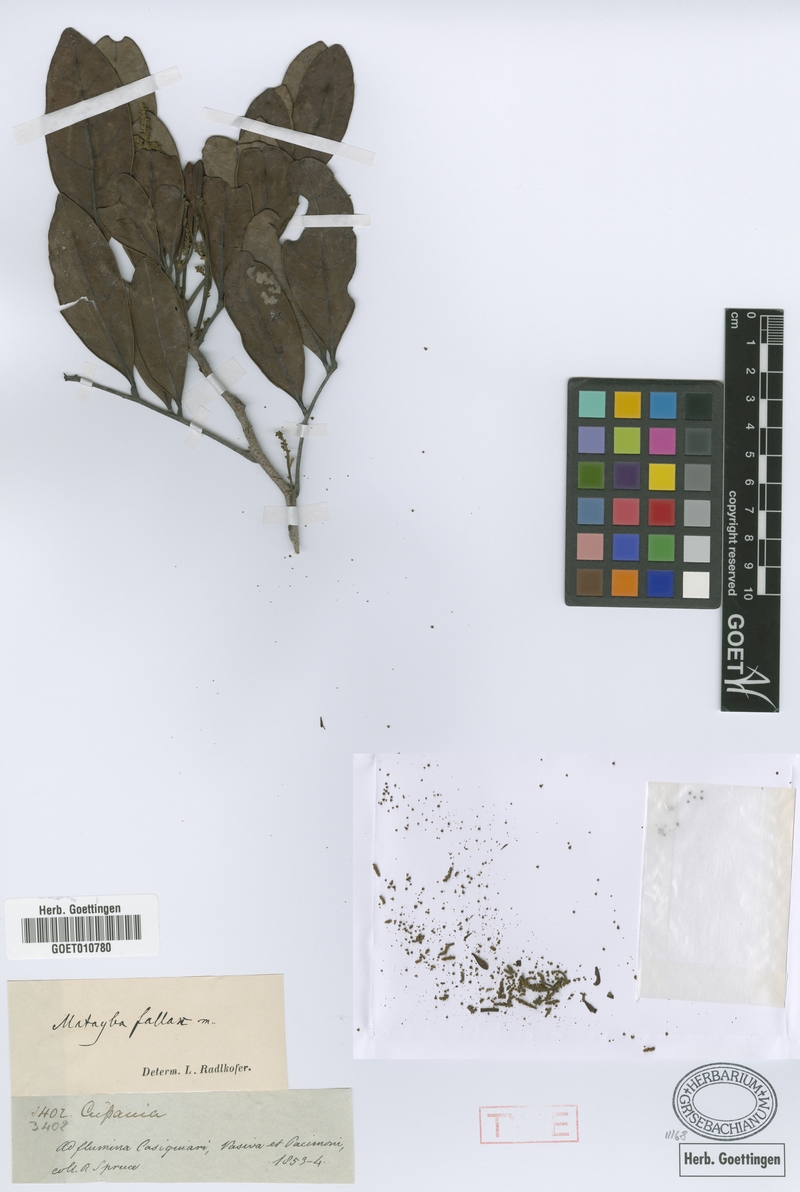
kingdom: Plantae
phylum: Tracheophyta
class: Magnoliopsida
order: Sapindales
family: Sapindaceae
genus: Matayba
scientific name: Matayba opaca
